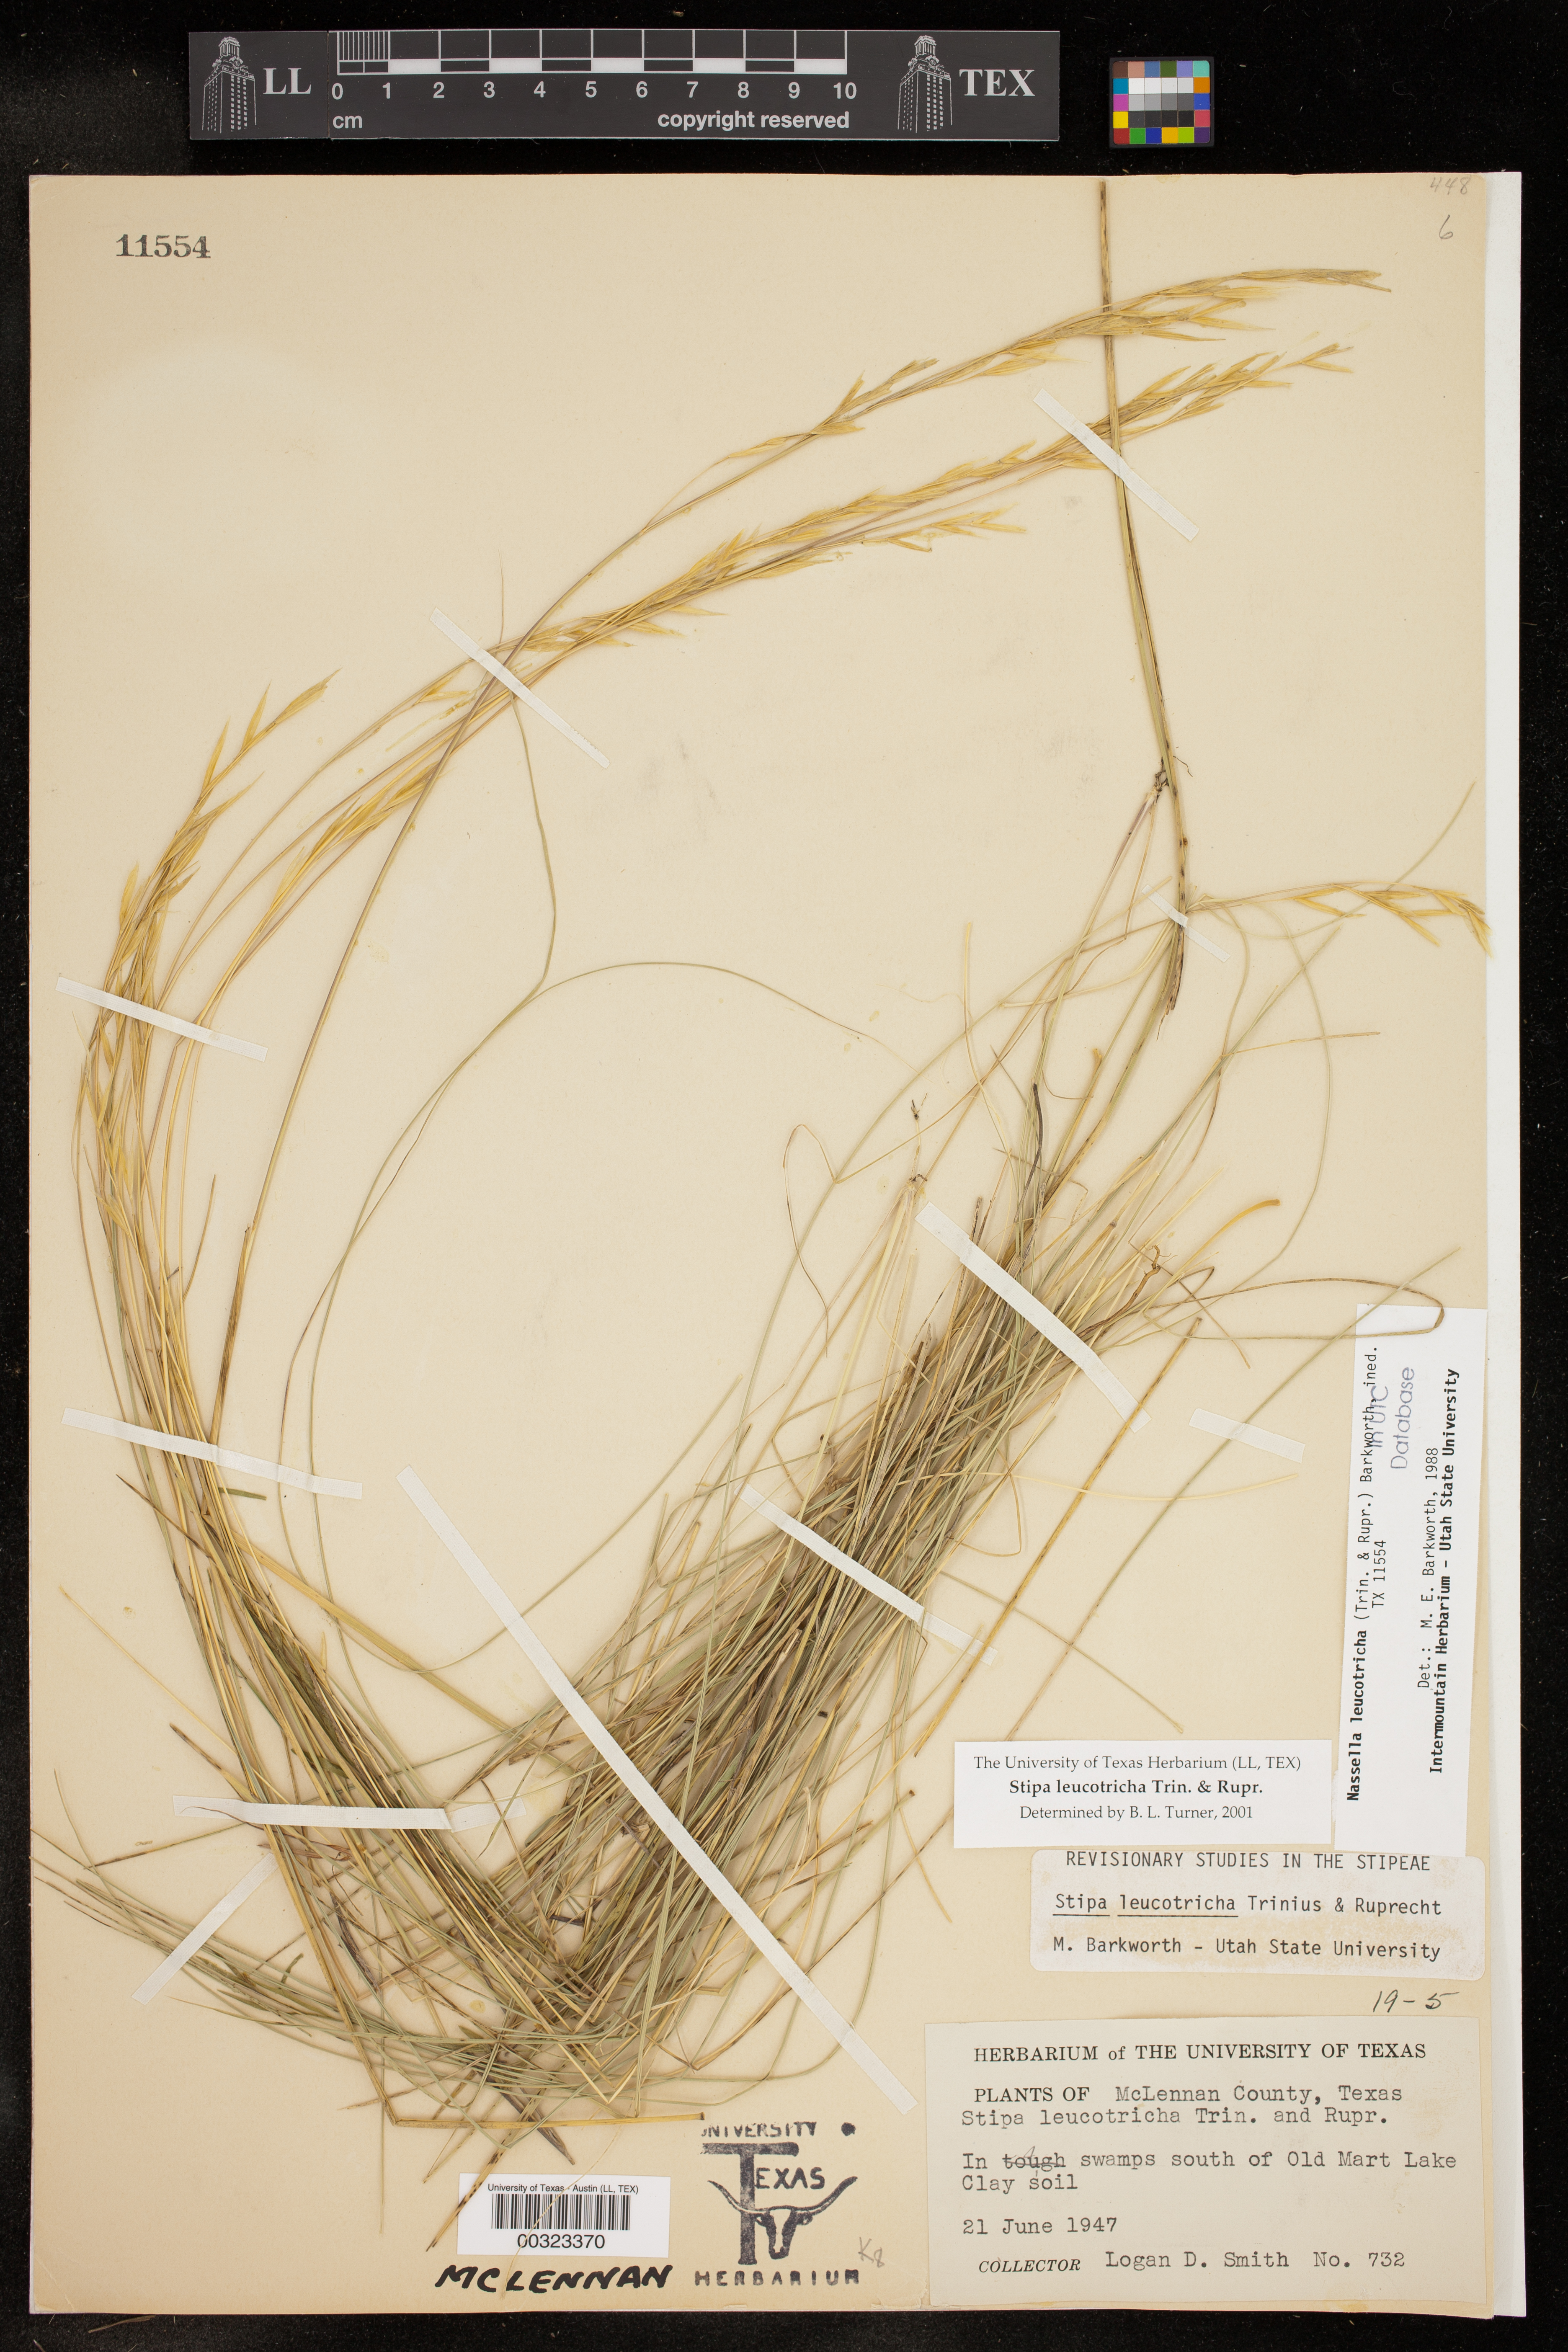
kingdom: Plantae
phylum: Tracheophyta
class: Liliopsida
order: Poales
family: Poaceae
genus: Nassella
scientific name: Nassella leucotricha
